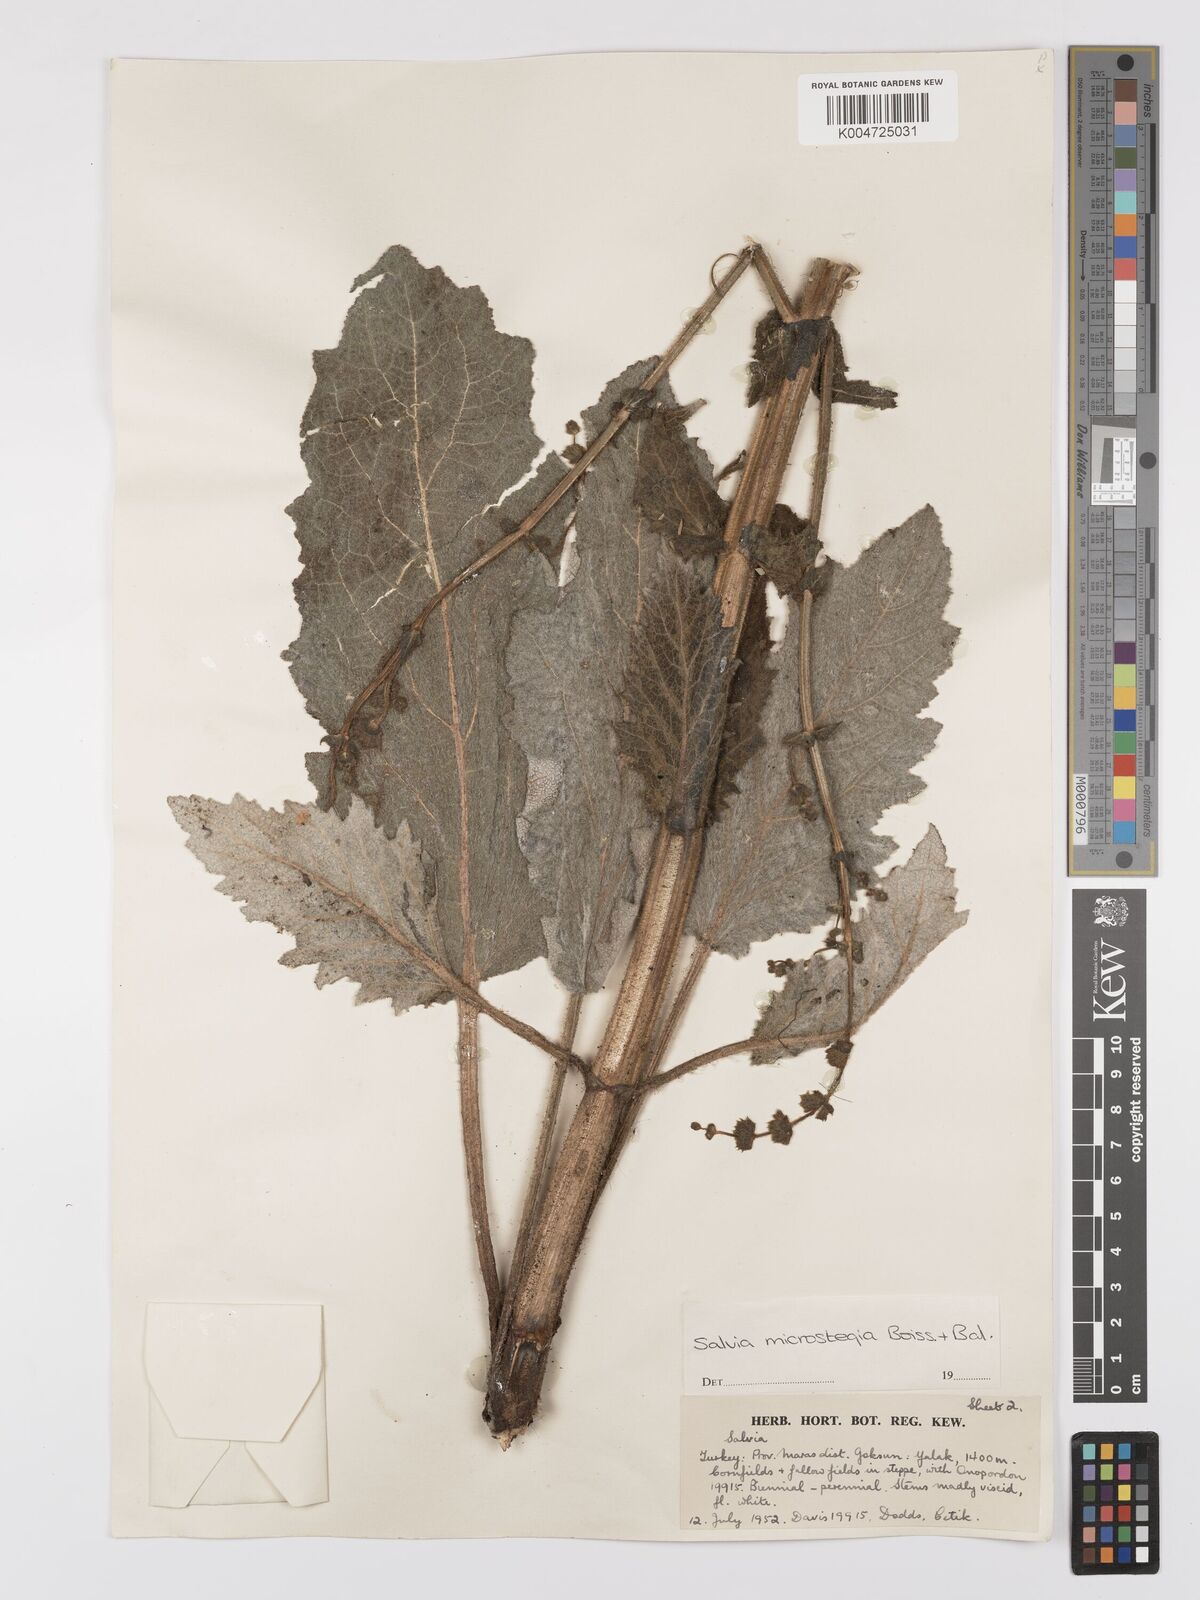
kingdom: Plantae
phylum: Tracheophyta
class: Magnoliopsida
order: Lamiales
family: Lamiaceae
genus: Salvia
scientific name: Salvia microstegia
